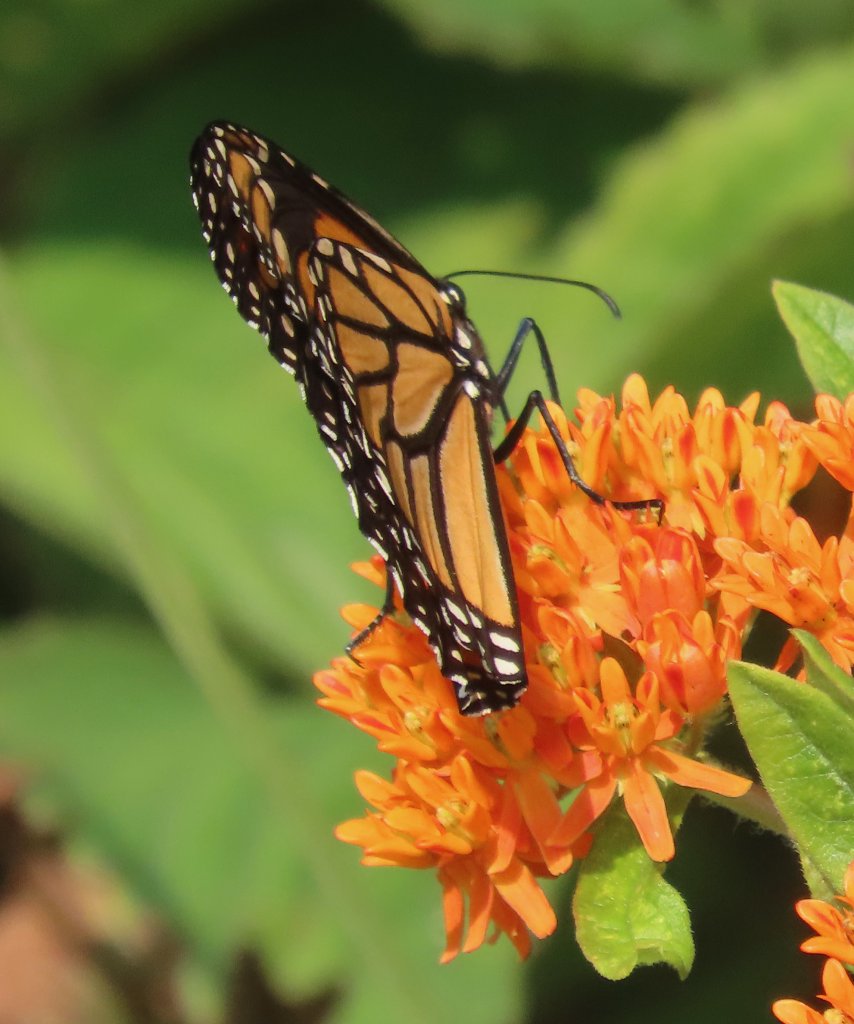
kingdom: Animalia
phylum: Arthropoda
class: Insecta
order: Lepidoptera
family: Nymphalidae
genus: Danaus
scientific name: Danaus plexippus
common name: Monarch
